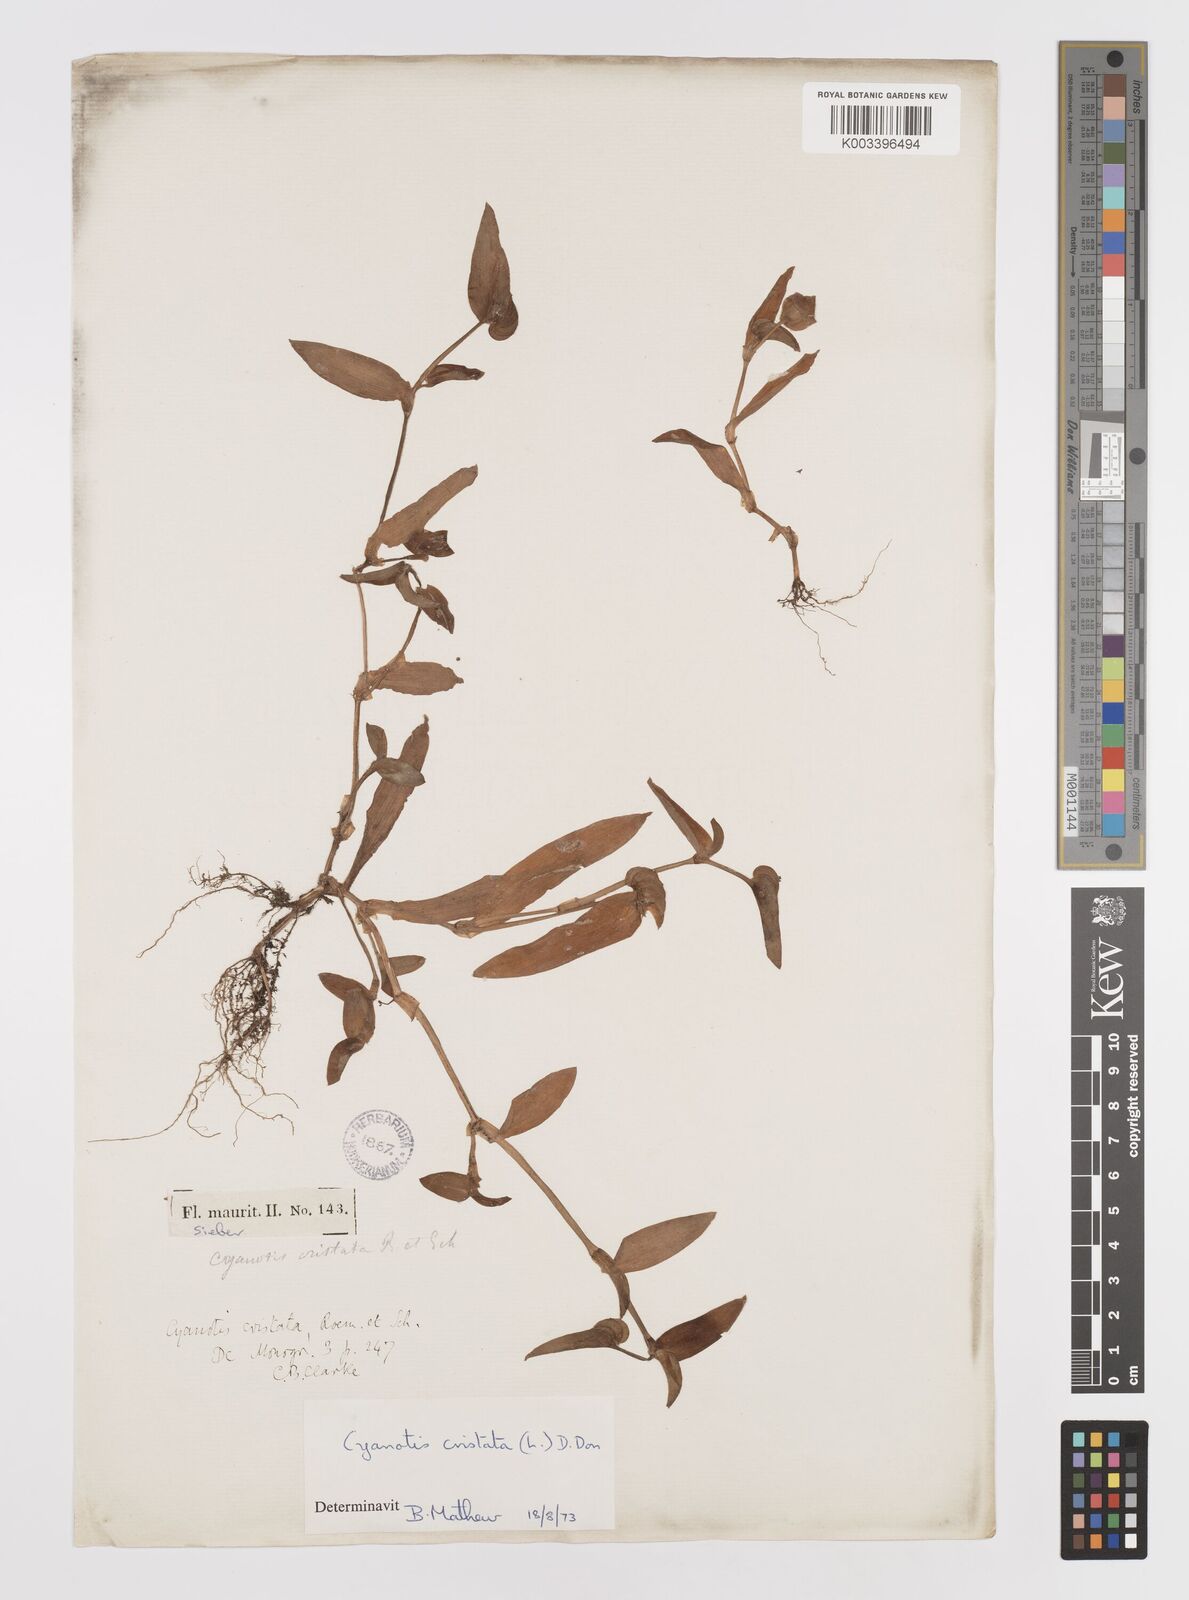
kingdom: Plantae
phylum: Tracheophyta
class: Liliopsida
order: Commelinales
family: Commelinaceae
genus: Cyanotis
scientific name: Cyanotis cristata
